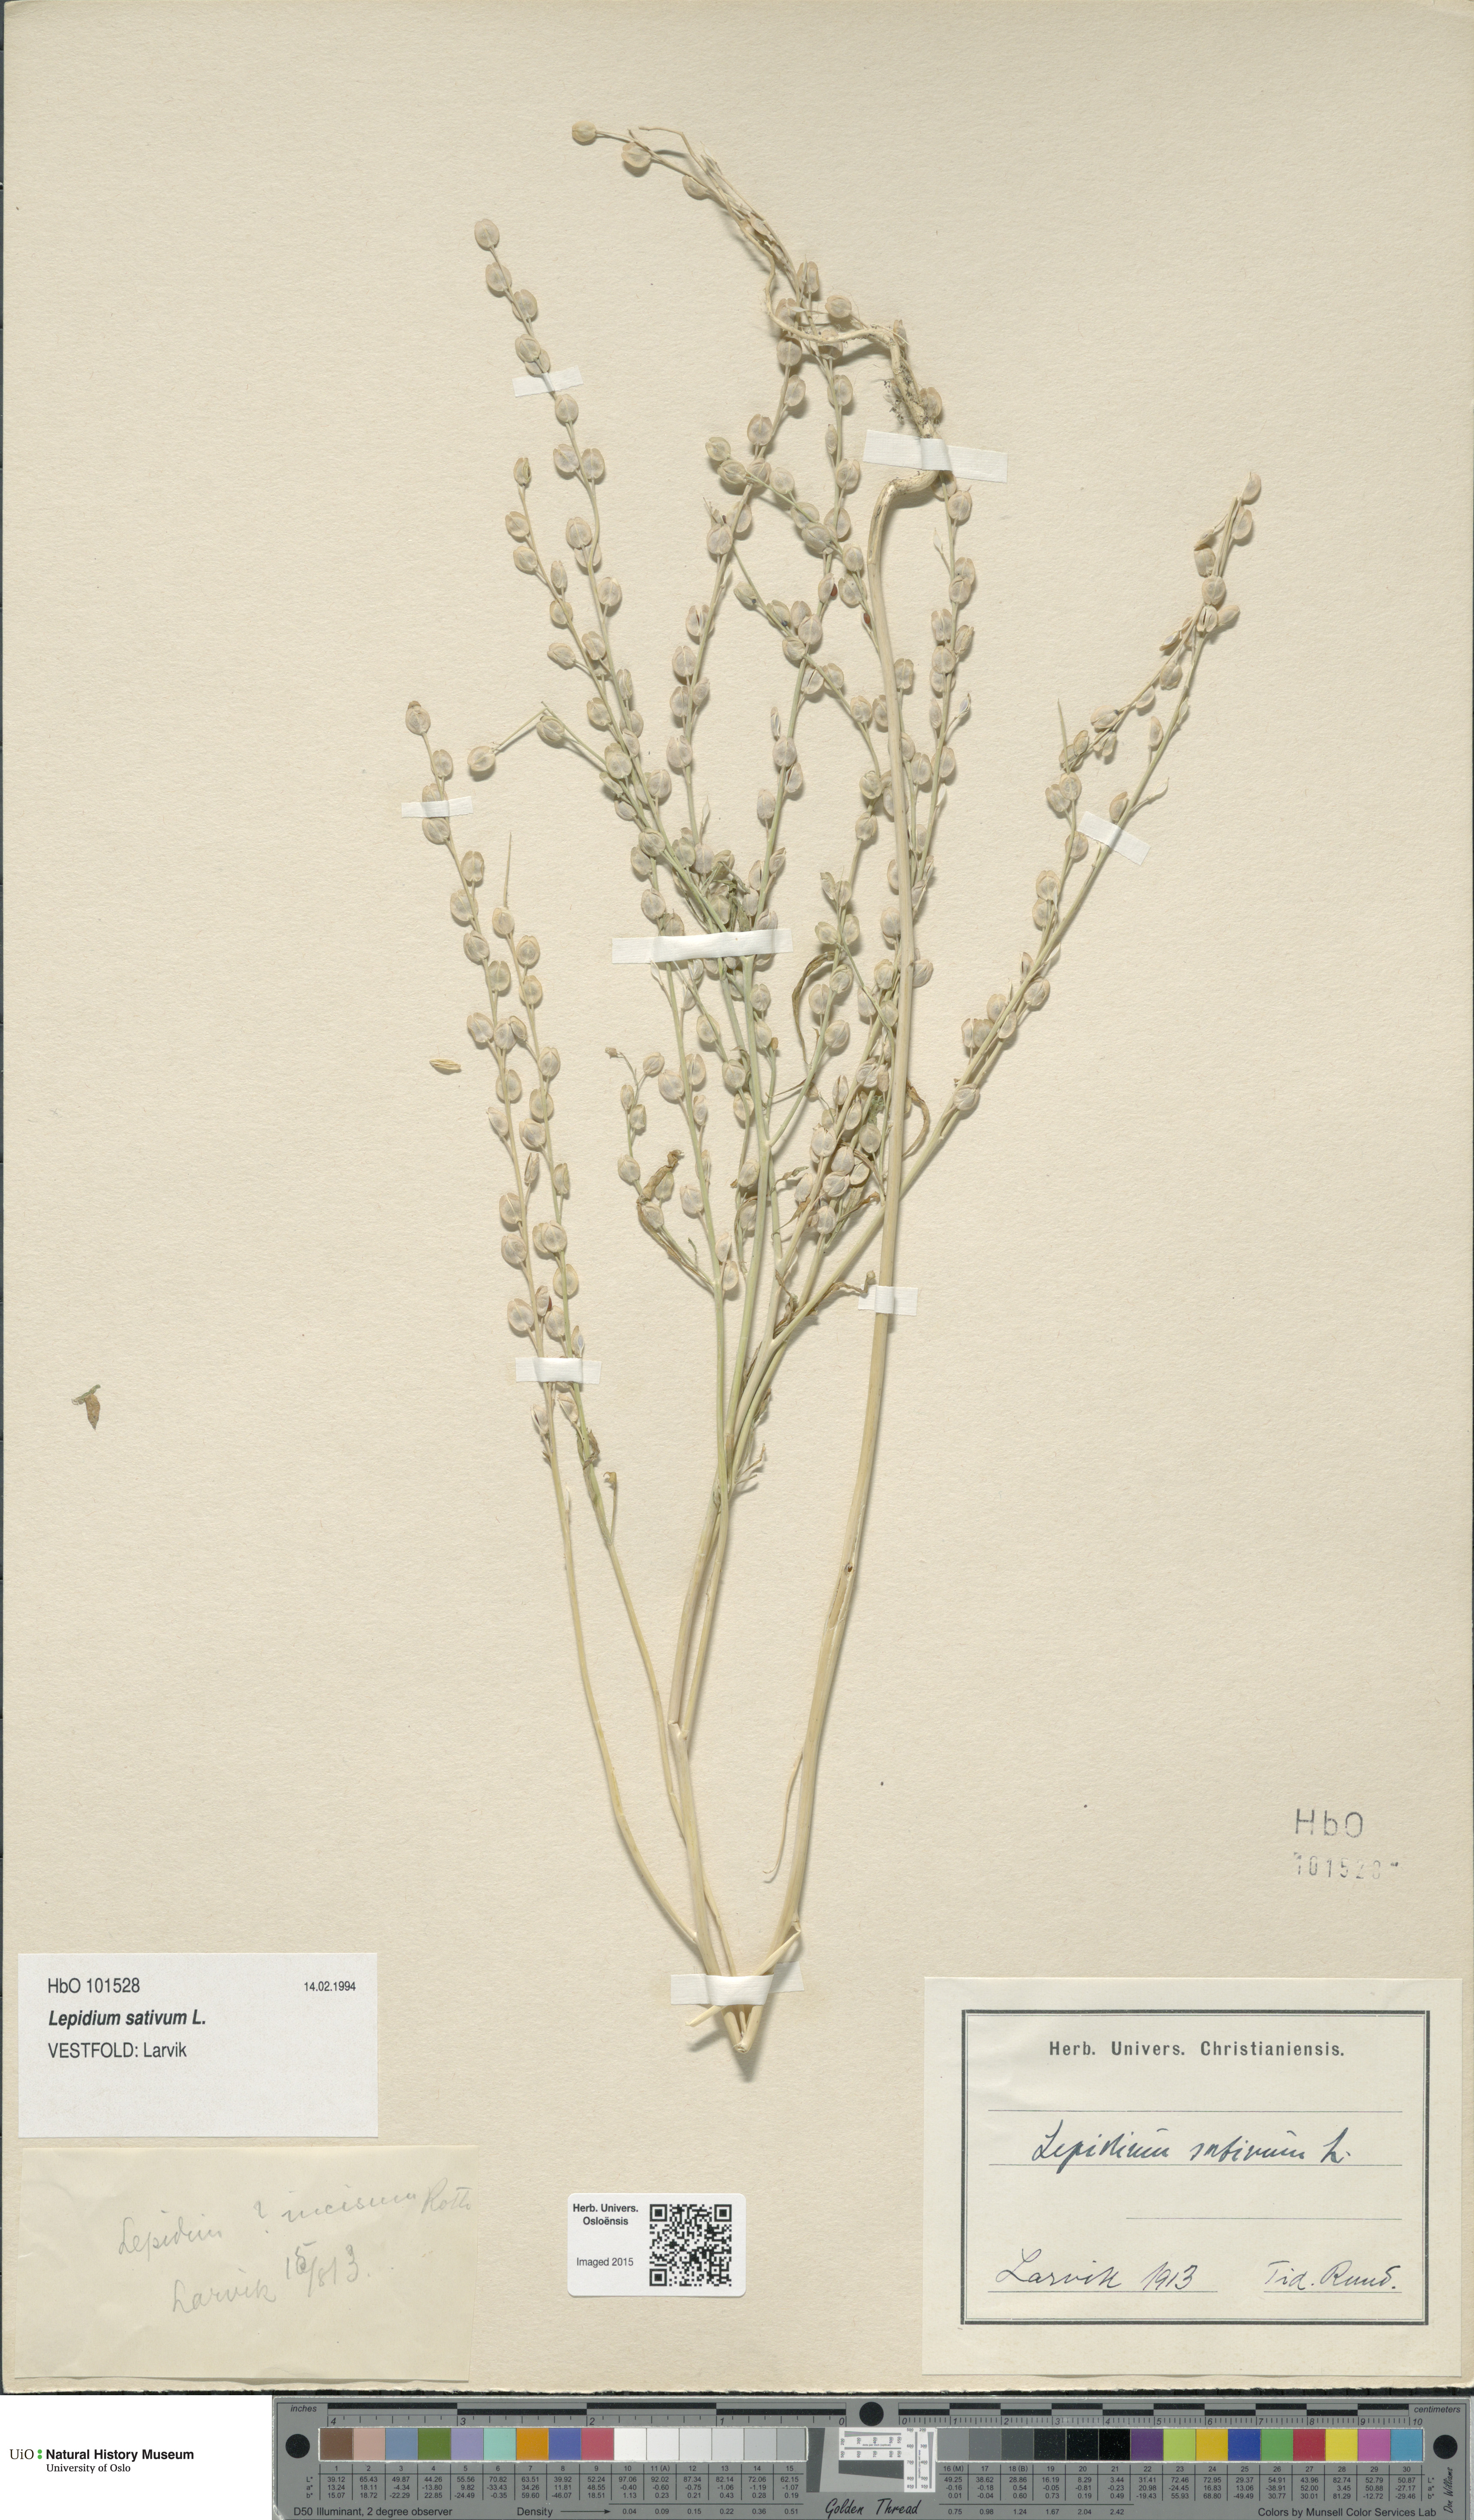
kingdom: Plantae
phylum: Tracheophyta
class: Magnoliopsida
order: Brassicales
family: Brassicaceae
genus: Lepidium
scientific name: Lepidium sativum
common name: Garden cress
